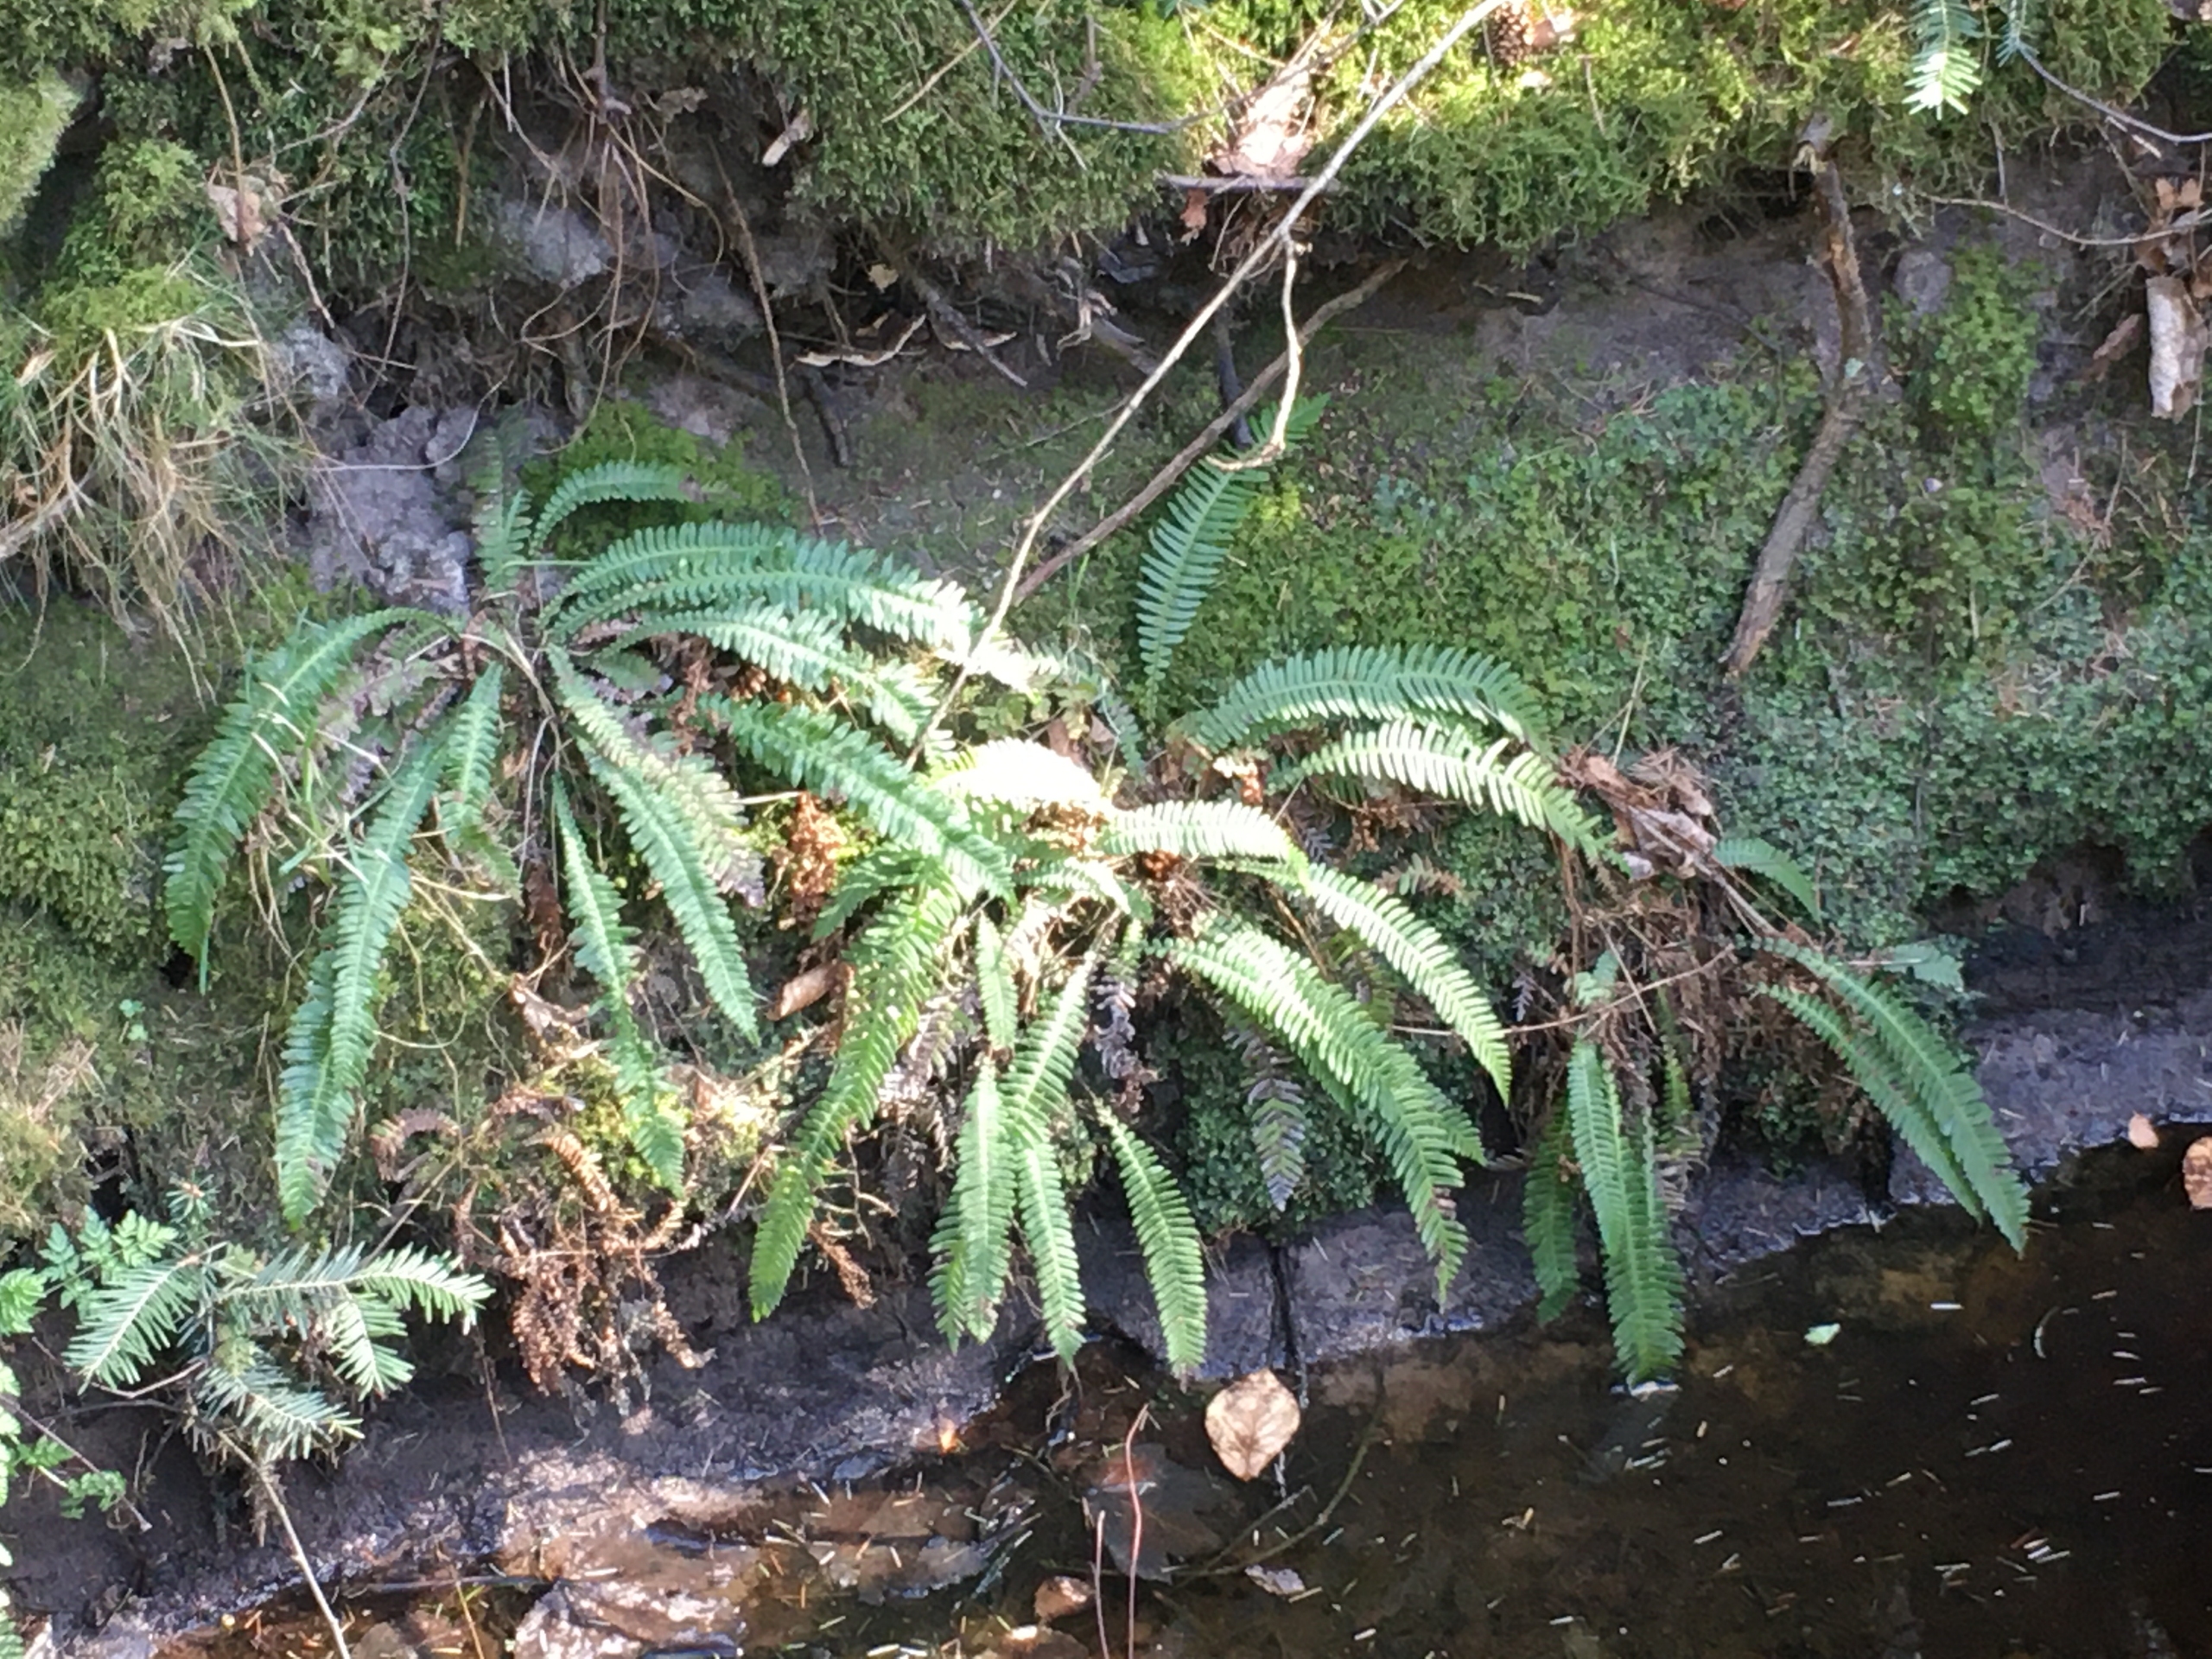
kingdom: Plantae
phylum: Tracheophyta
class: Polypodiopsida
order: Polypodiales
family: Blechnaceae
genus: Struthiopteris
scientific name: Struthiopteris spicant
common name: Kambregne
